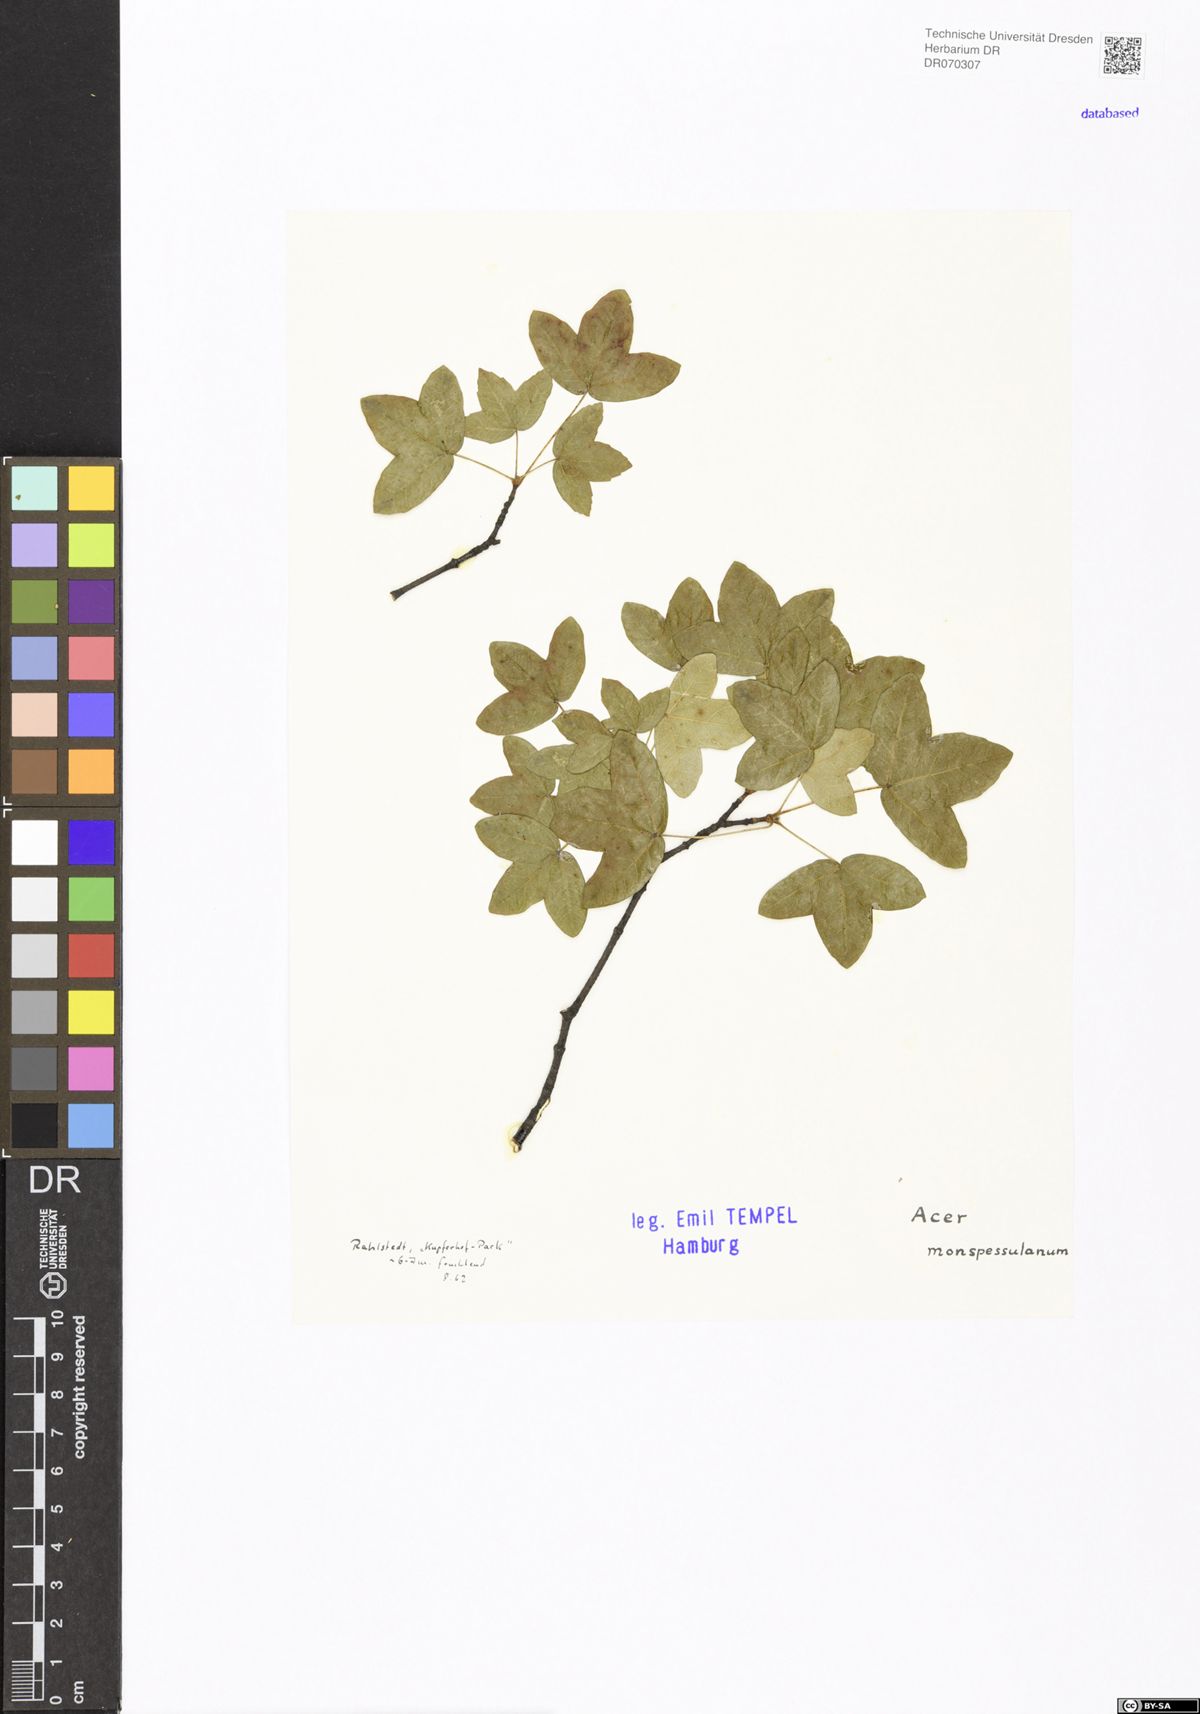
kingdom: Plantae
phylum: Tracheophyta
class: Magnoliopsida
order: Sapindales
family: Sapindaceae
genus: Acer
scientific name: Acer monspessulanum
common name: Montpellier maple
